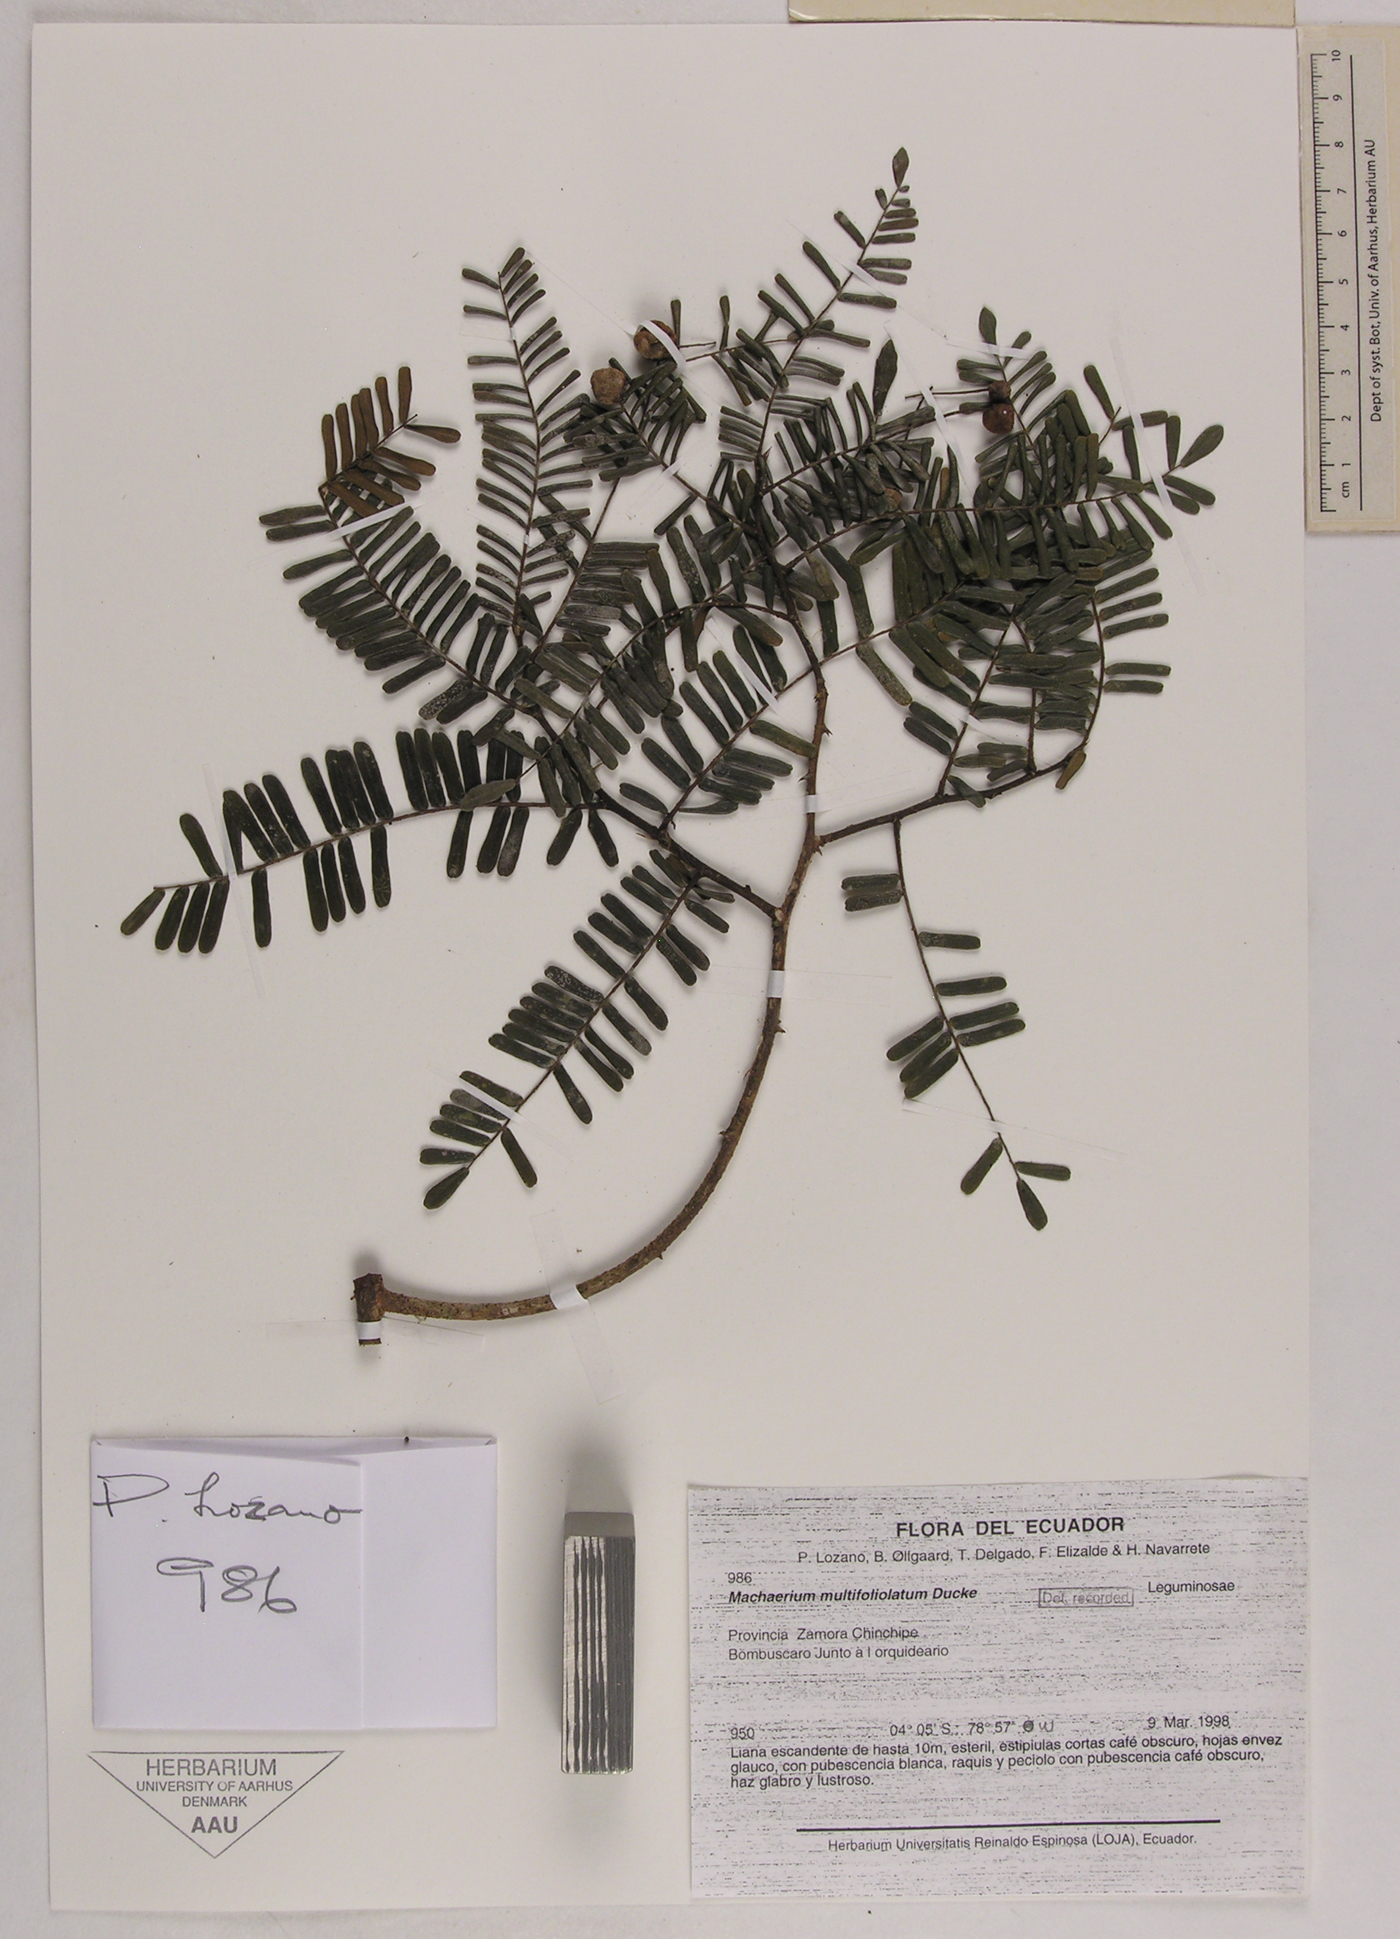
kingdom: Plantae
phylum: Tracheophyta
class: Magnoliopsida
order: Fabales
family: Fabaceae
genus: Machaerium
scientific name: Machaerium multifoliolatum
